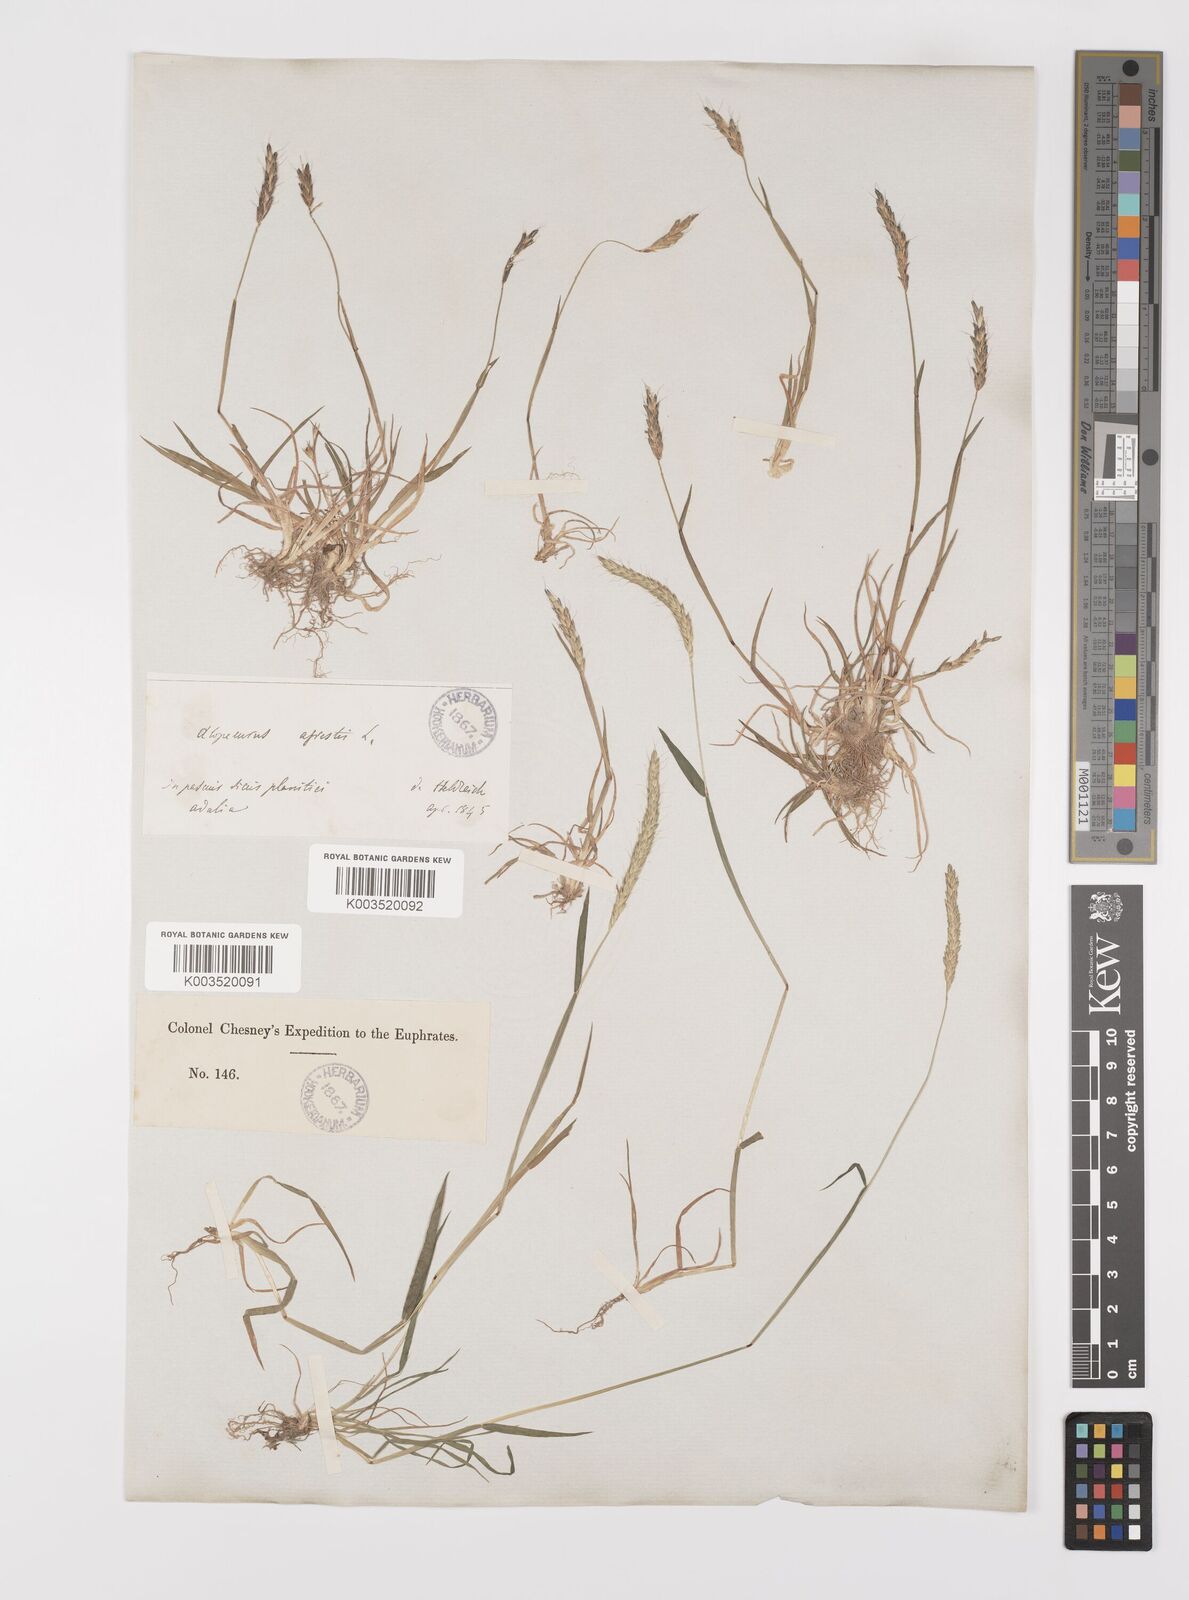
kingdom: Plantae
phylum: Tracheophyta
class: Liliopsida
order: Poales
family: Poaceae
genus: Alopecurus
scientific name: Alopecurus myosuroides
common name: Black-grass
